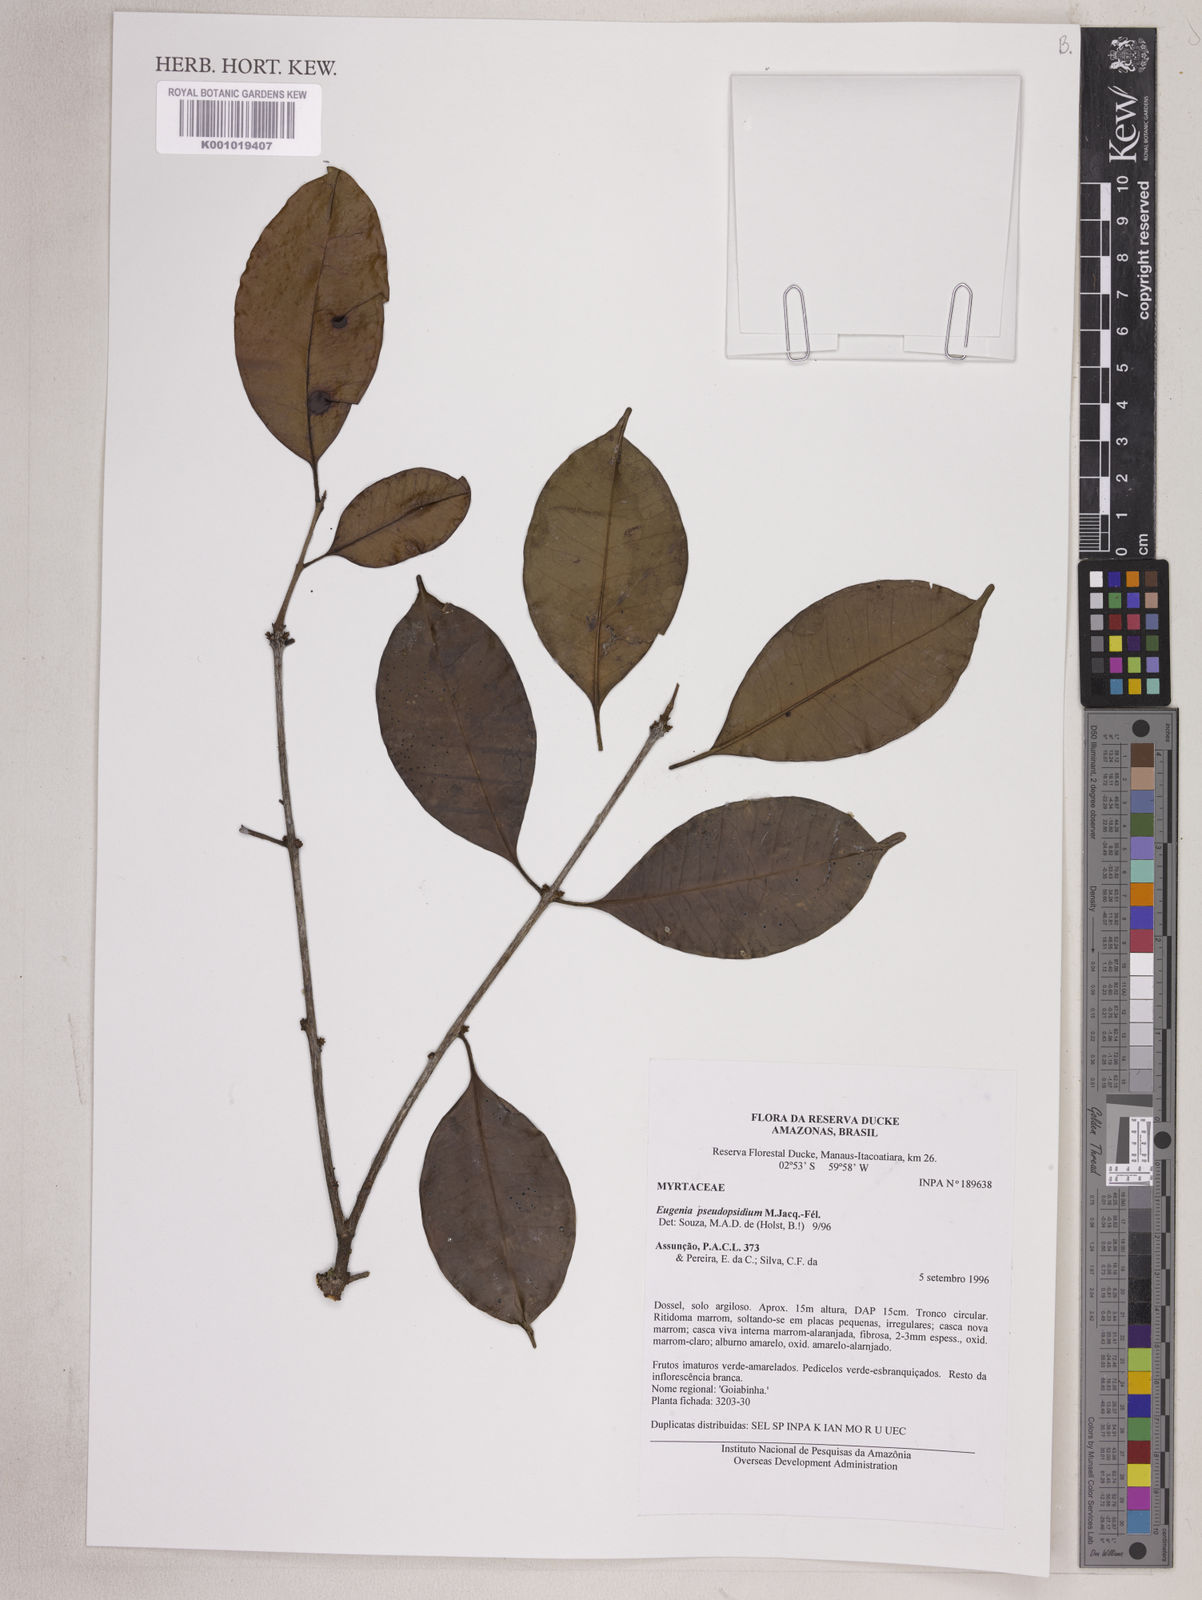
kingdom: Plantae
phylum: Tracheophyta
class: Magnoliopsida
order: Myrtales
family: Myrtaceae
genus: Eugenia
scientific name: Eugenia pseudopsidium
